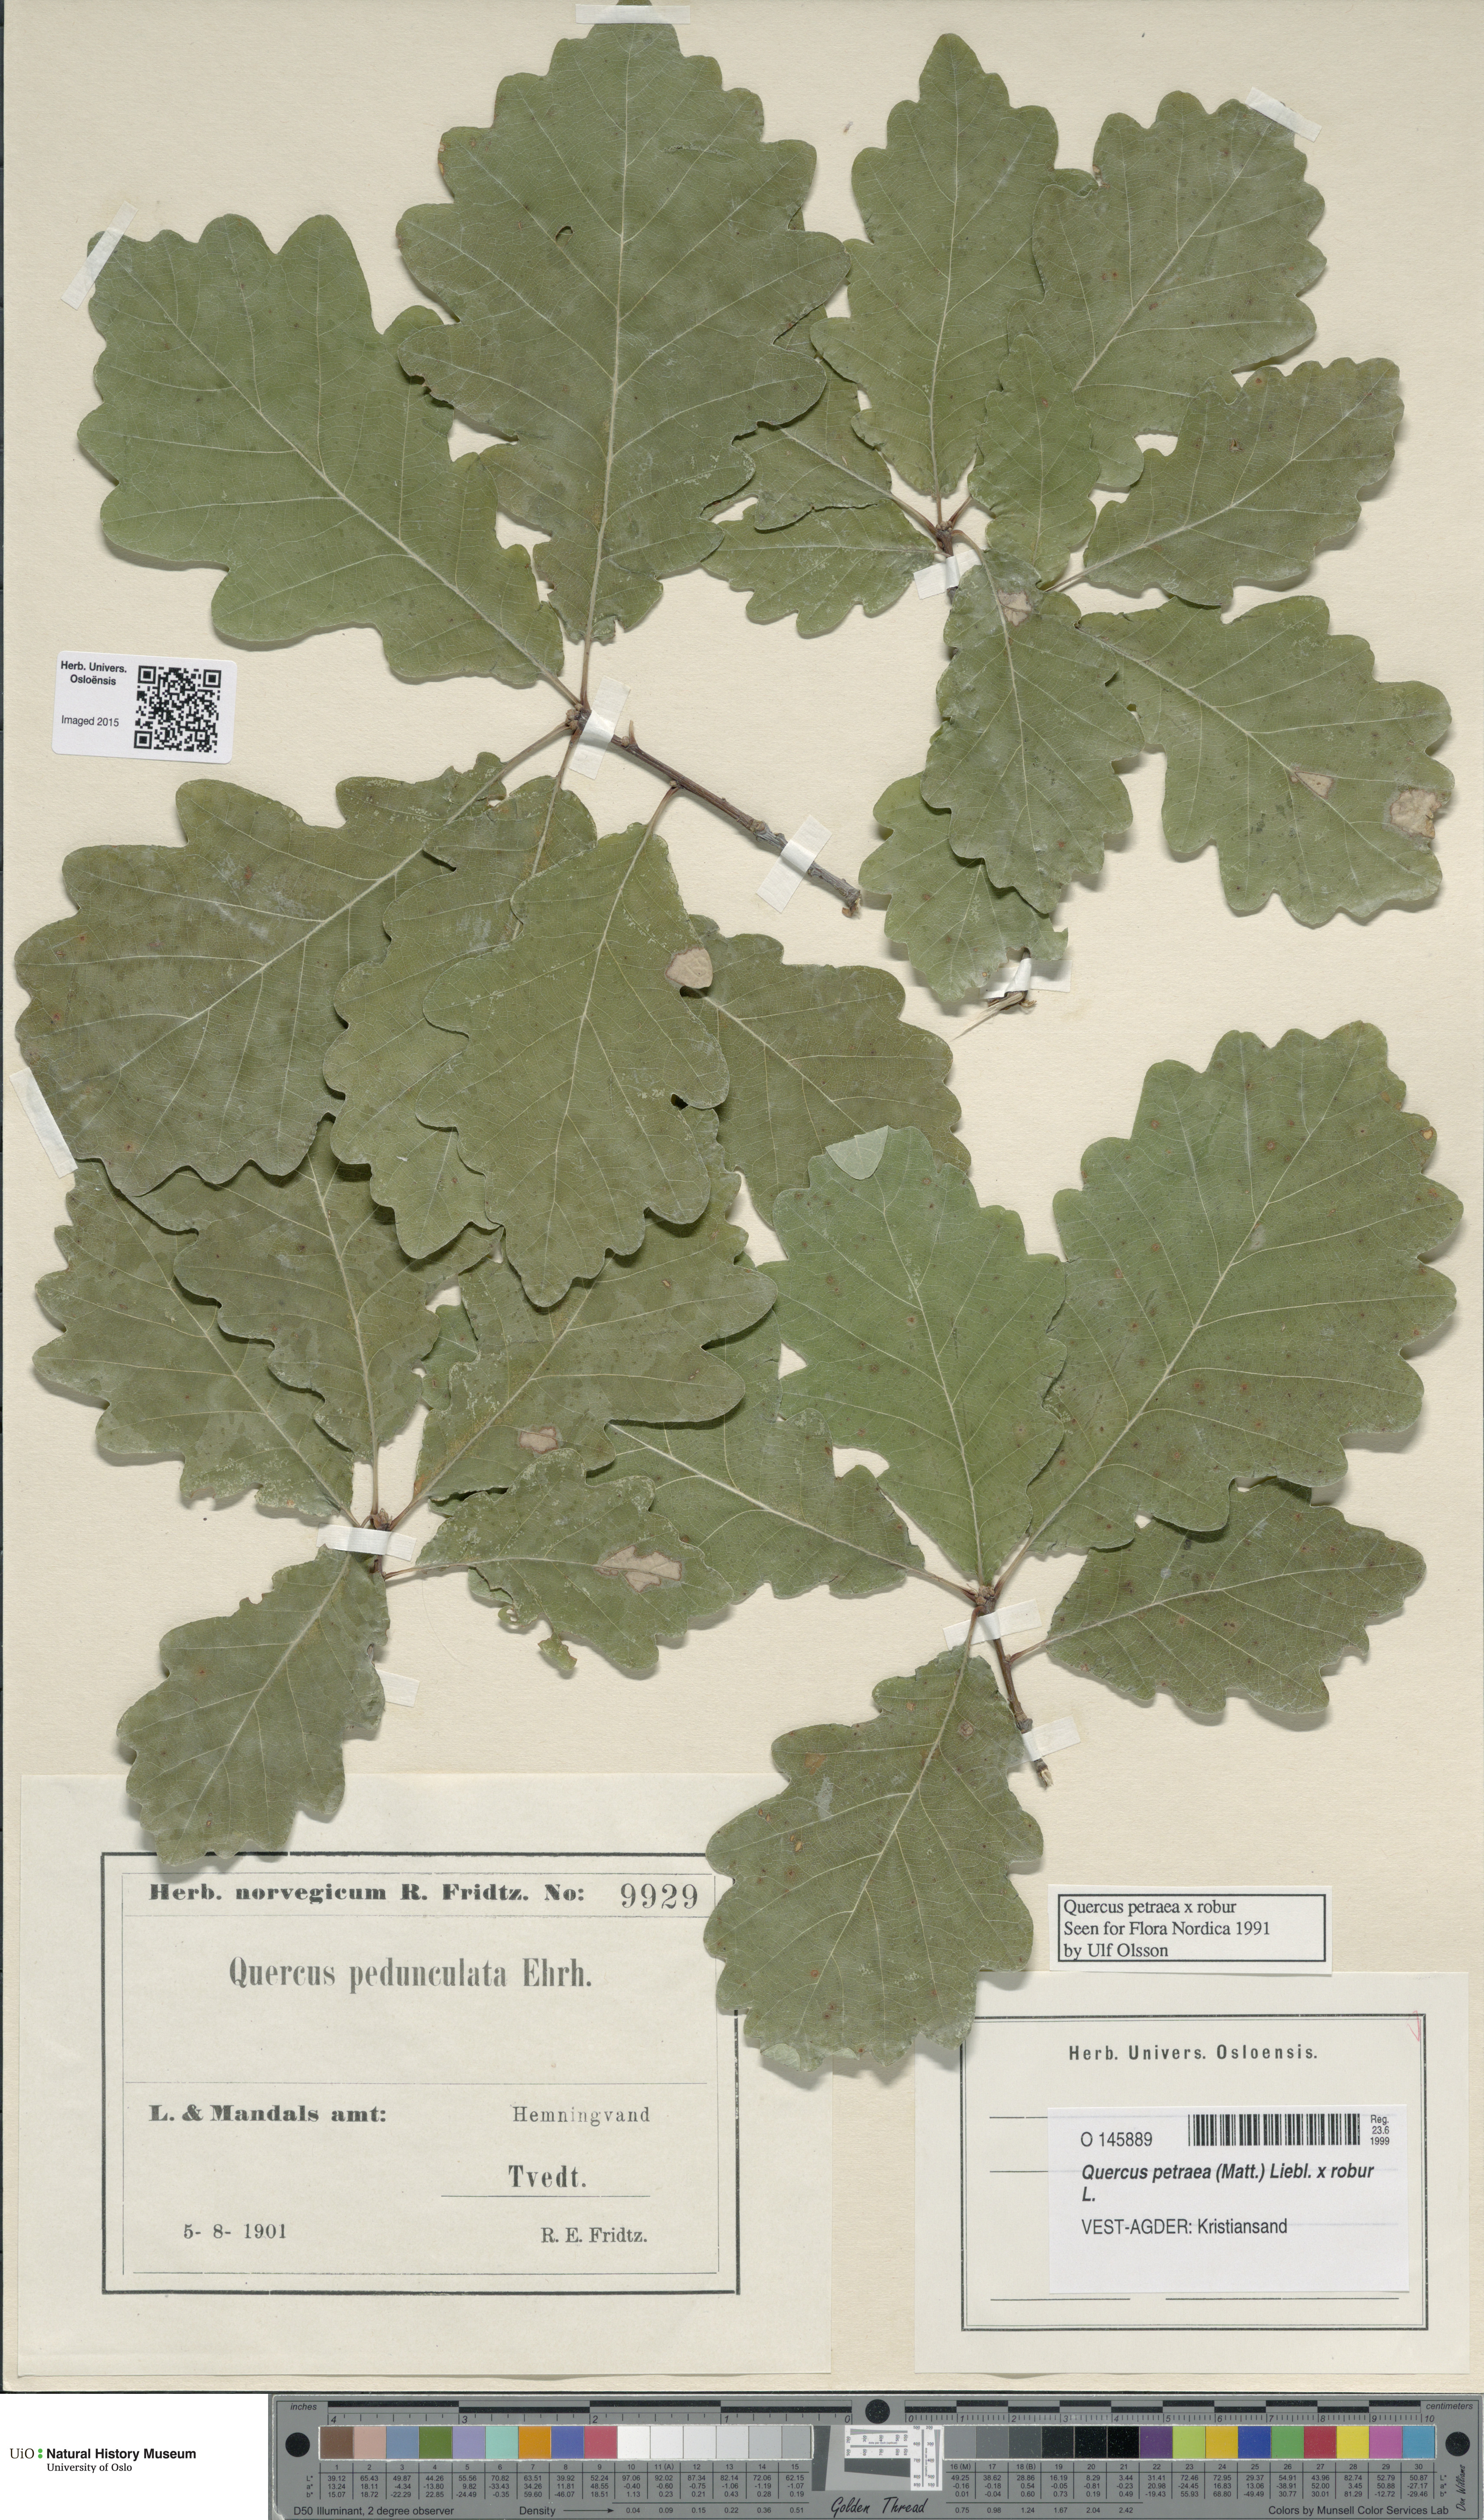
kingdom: Plantae
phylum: Tracheophyta
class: Magnoliopsida
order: Fagales
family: Fagaceae
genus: Quercus
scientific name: Quercus
